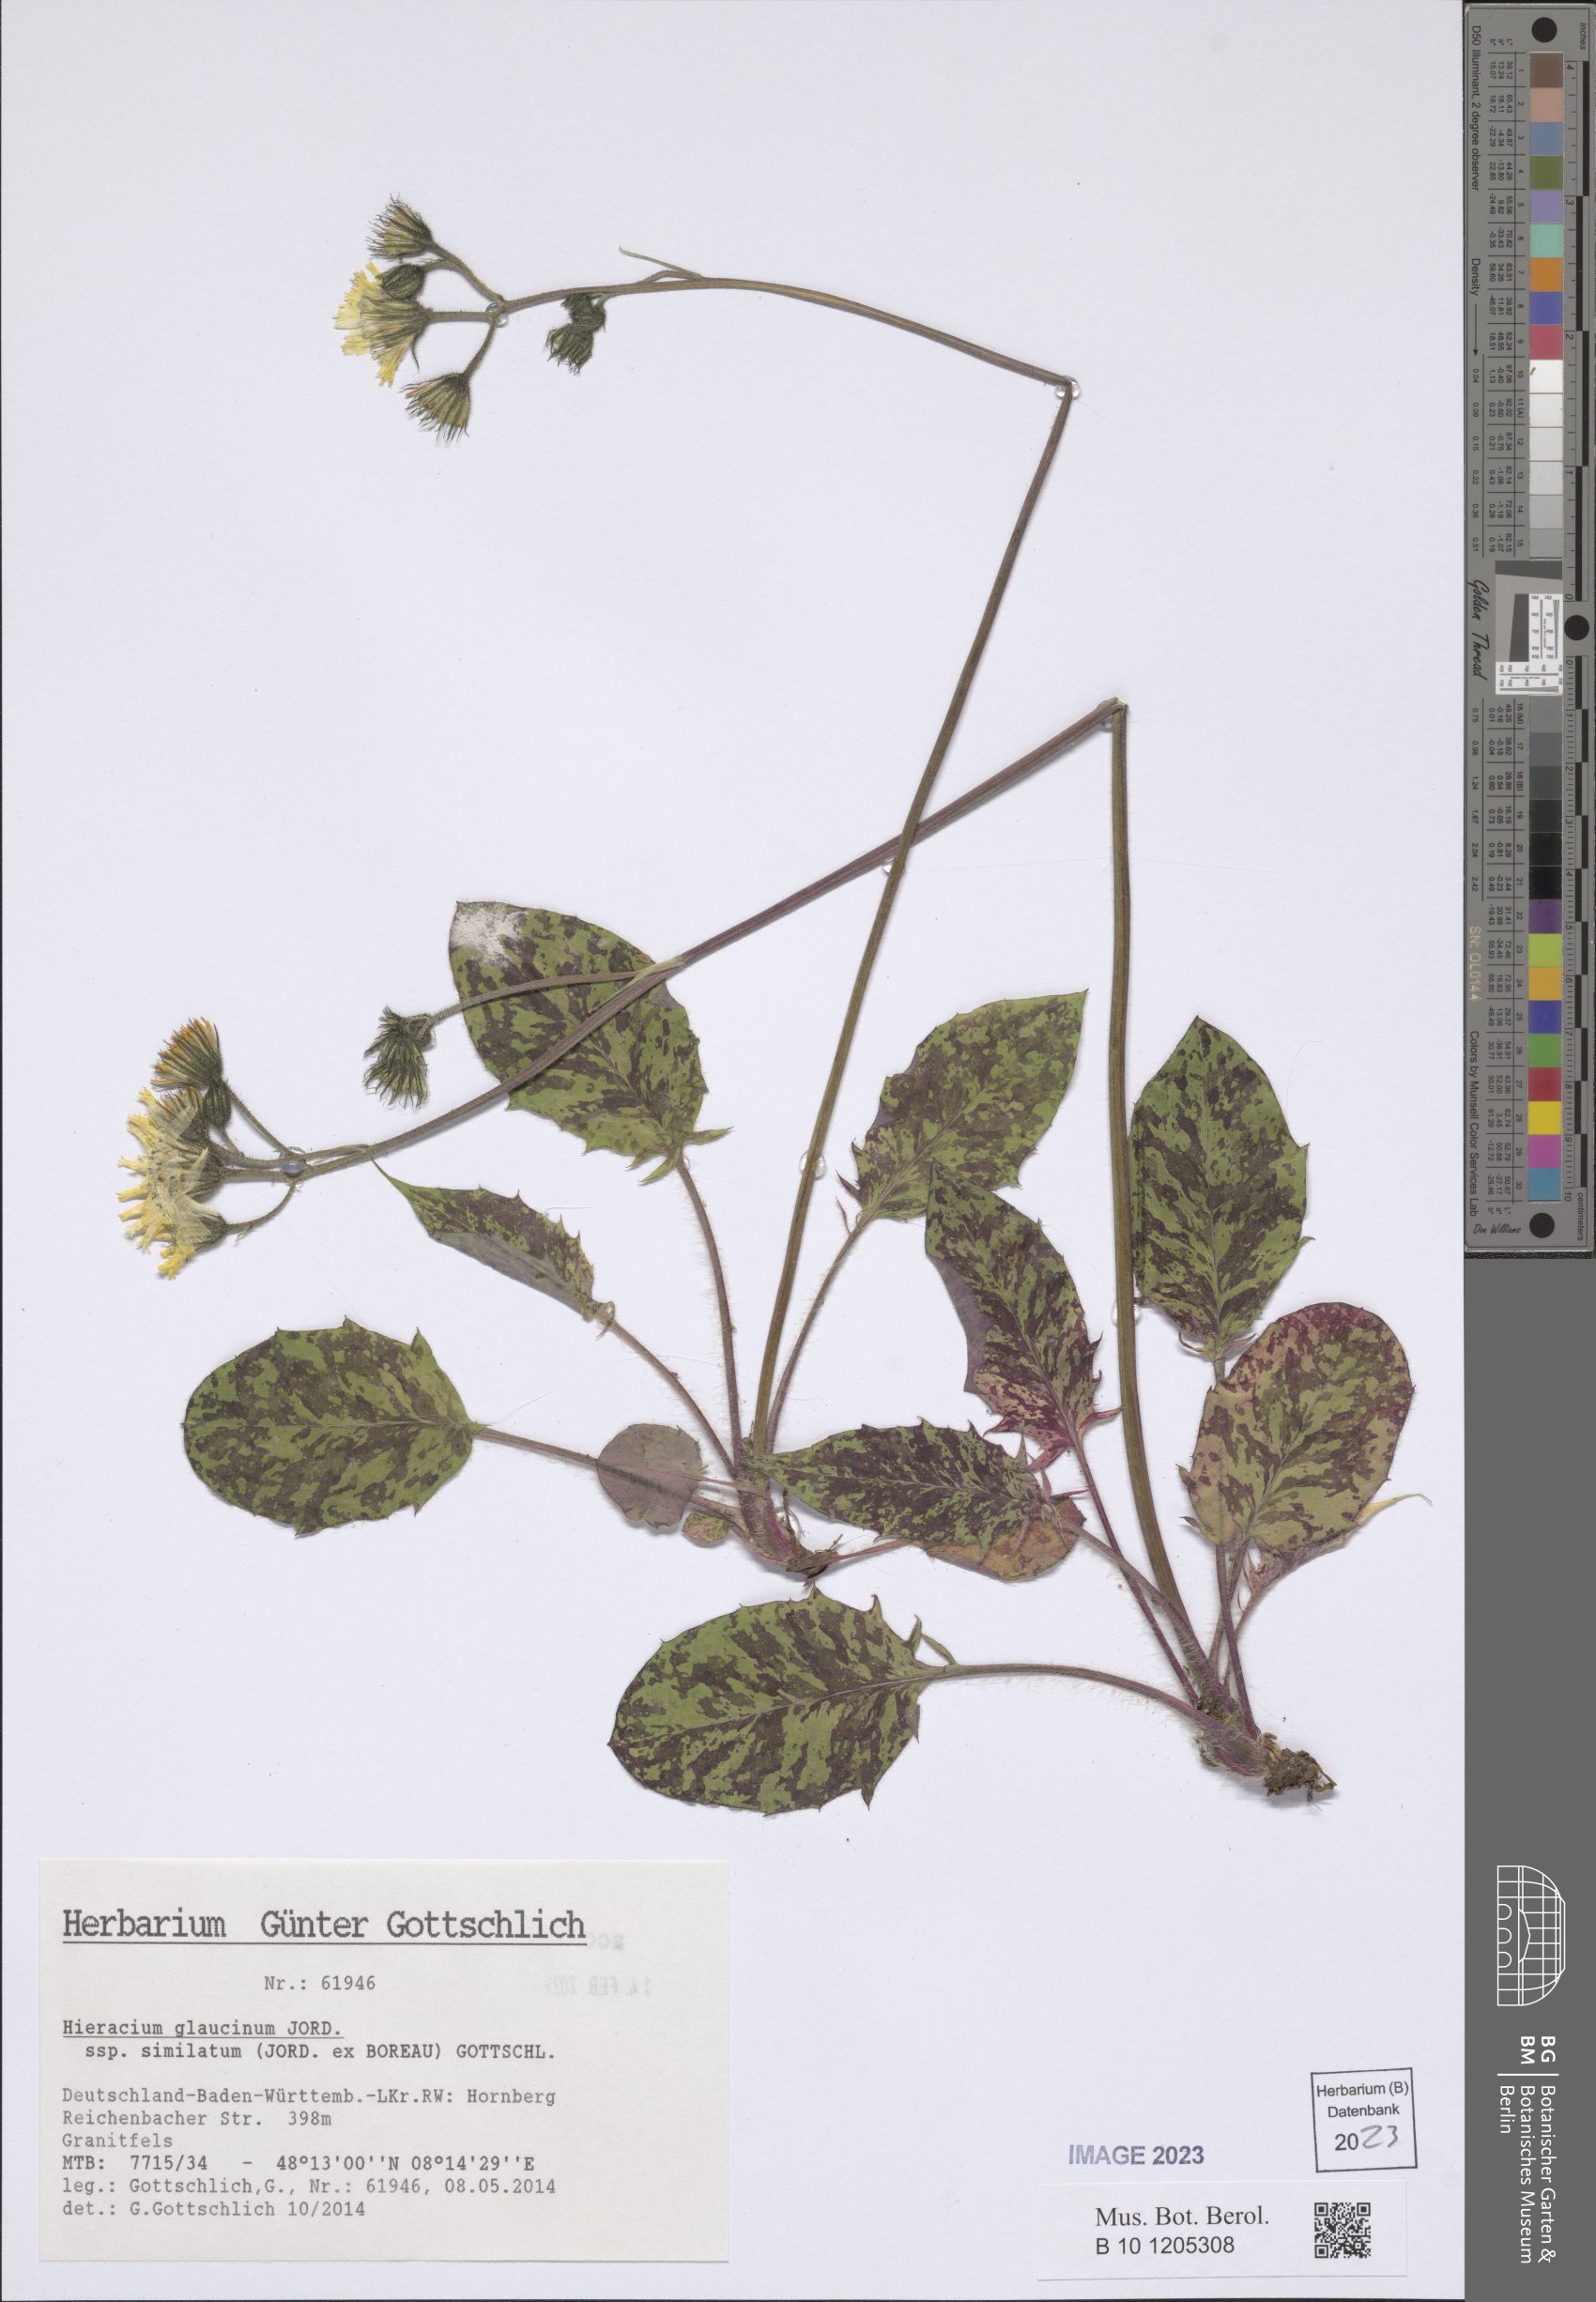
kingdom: Plantae
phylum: Tracheophyta
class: Magnoliopsida
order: Asterales
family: Asteraceae
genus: Hieracium
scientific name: Hieracium glaucinum
